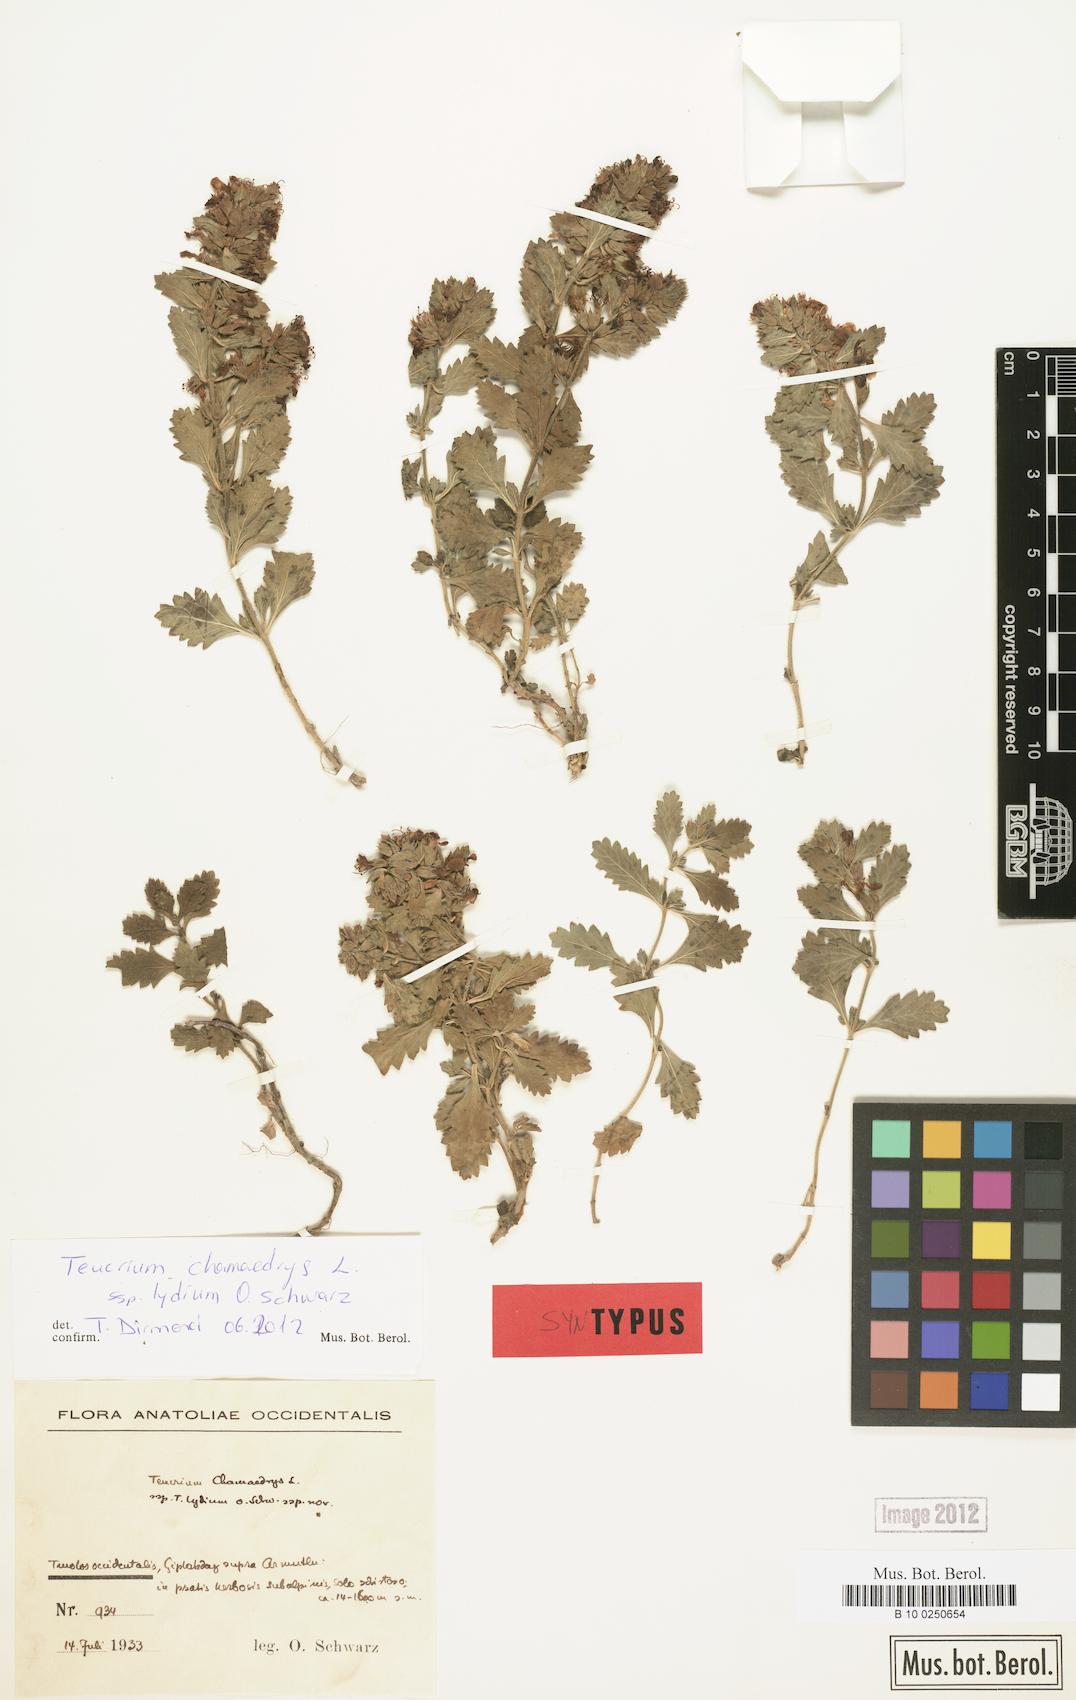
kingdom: Plantae
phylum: Tracheophyta
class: Magnoliopsida
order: Lamiales
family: Lamiaceae
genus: Teucrium
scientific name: Teucrium chamaedrys
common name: Wall germander
